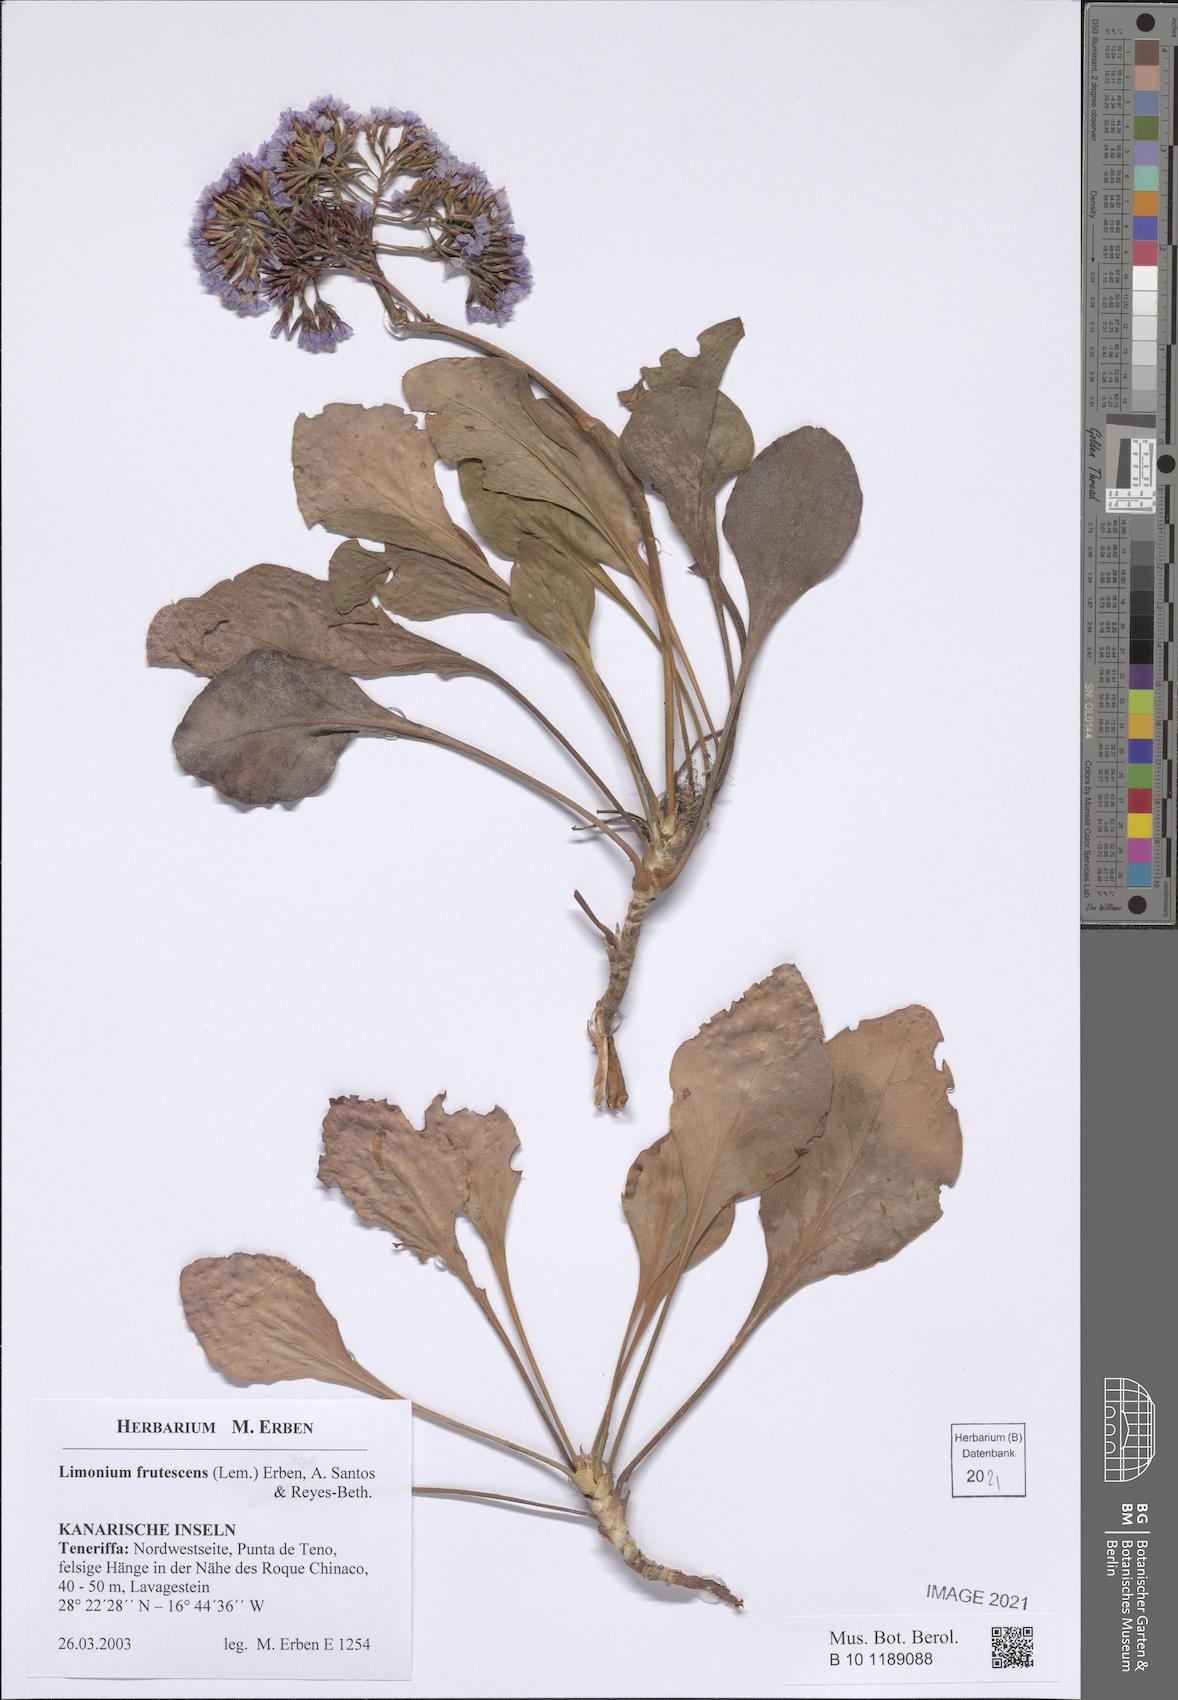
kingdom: Plantae
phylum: Tracheophyta
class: Magnoliopsida
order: Caryophyllales
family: Plumbaginaceae
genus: Limonium
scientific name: Limonium frutescens
